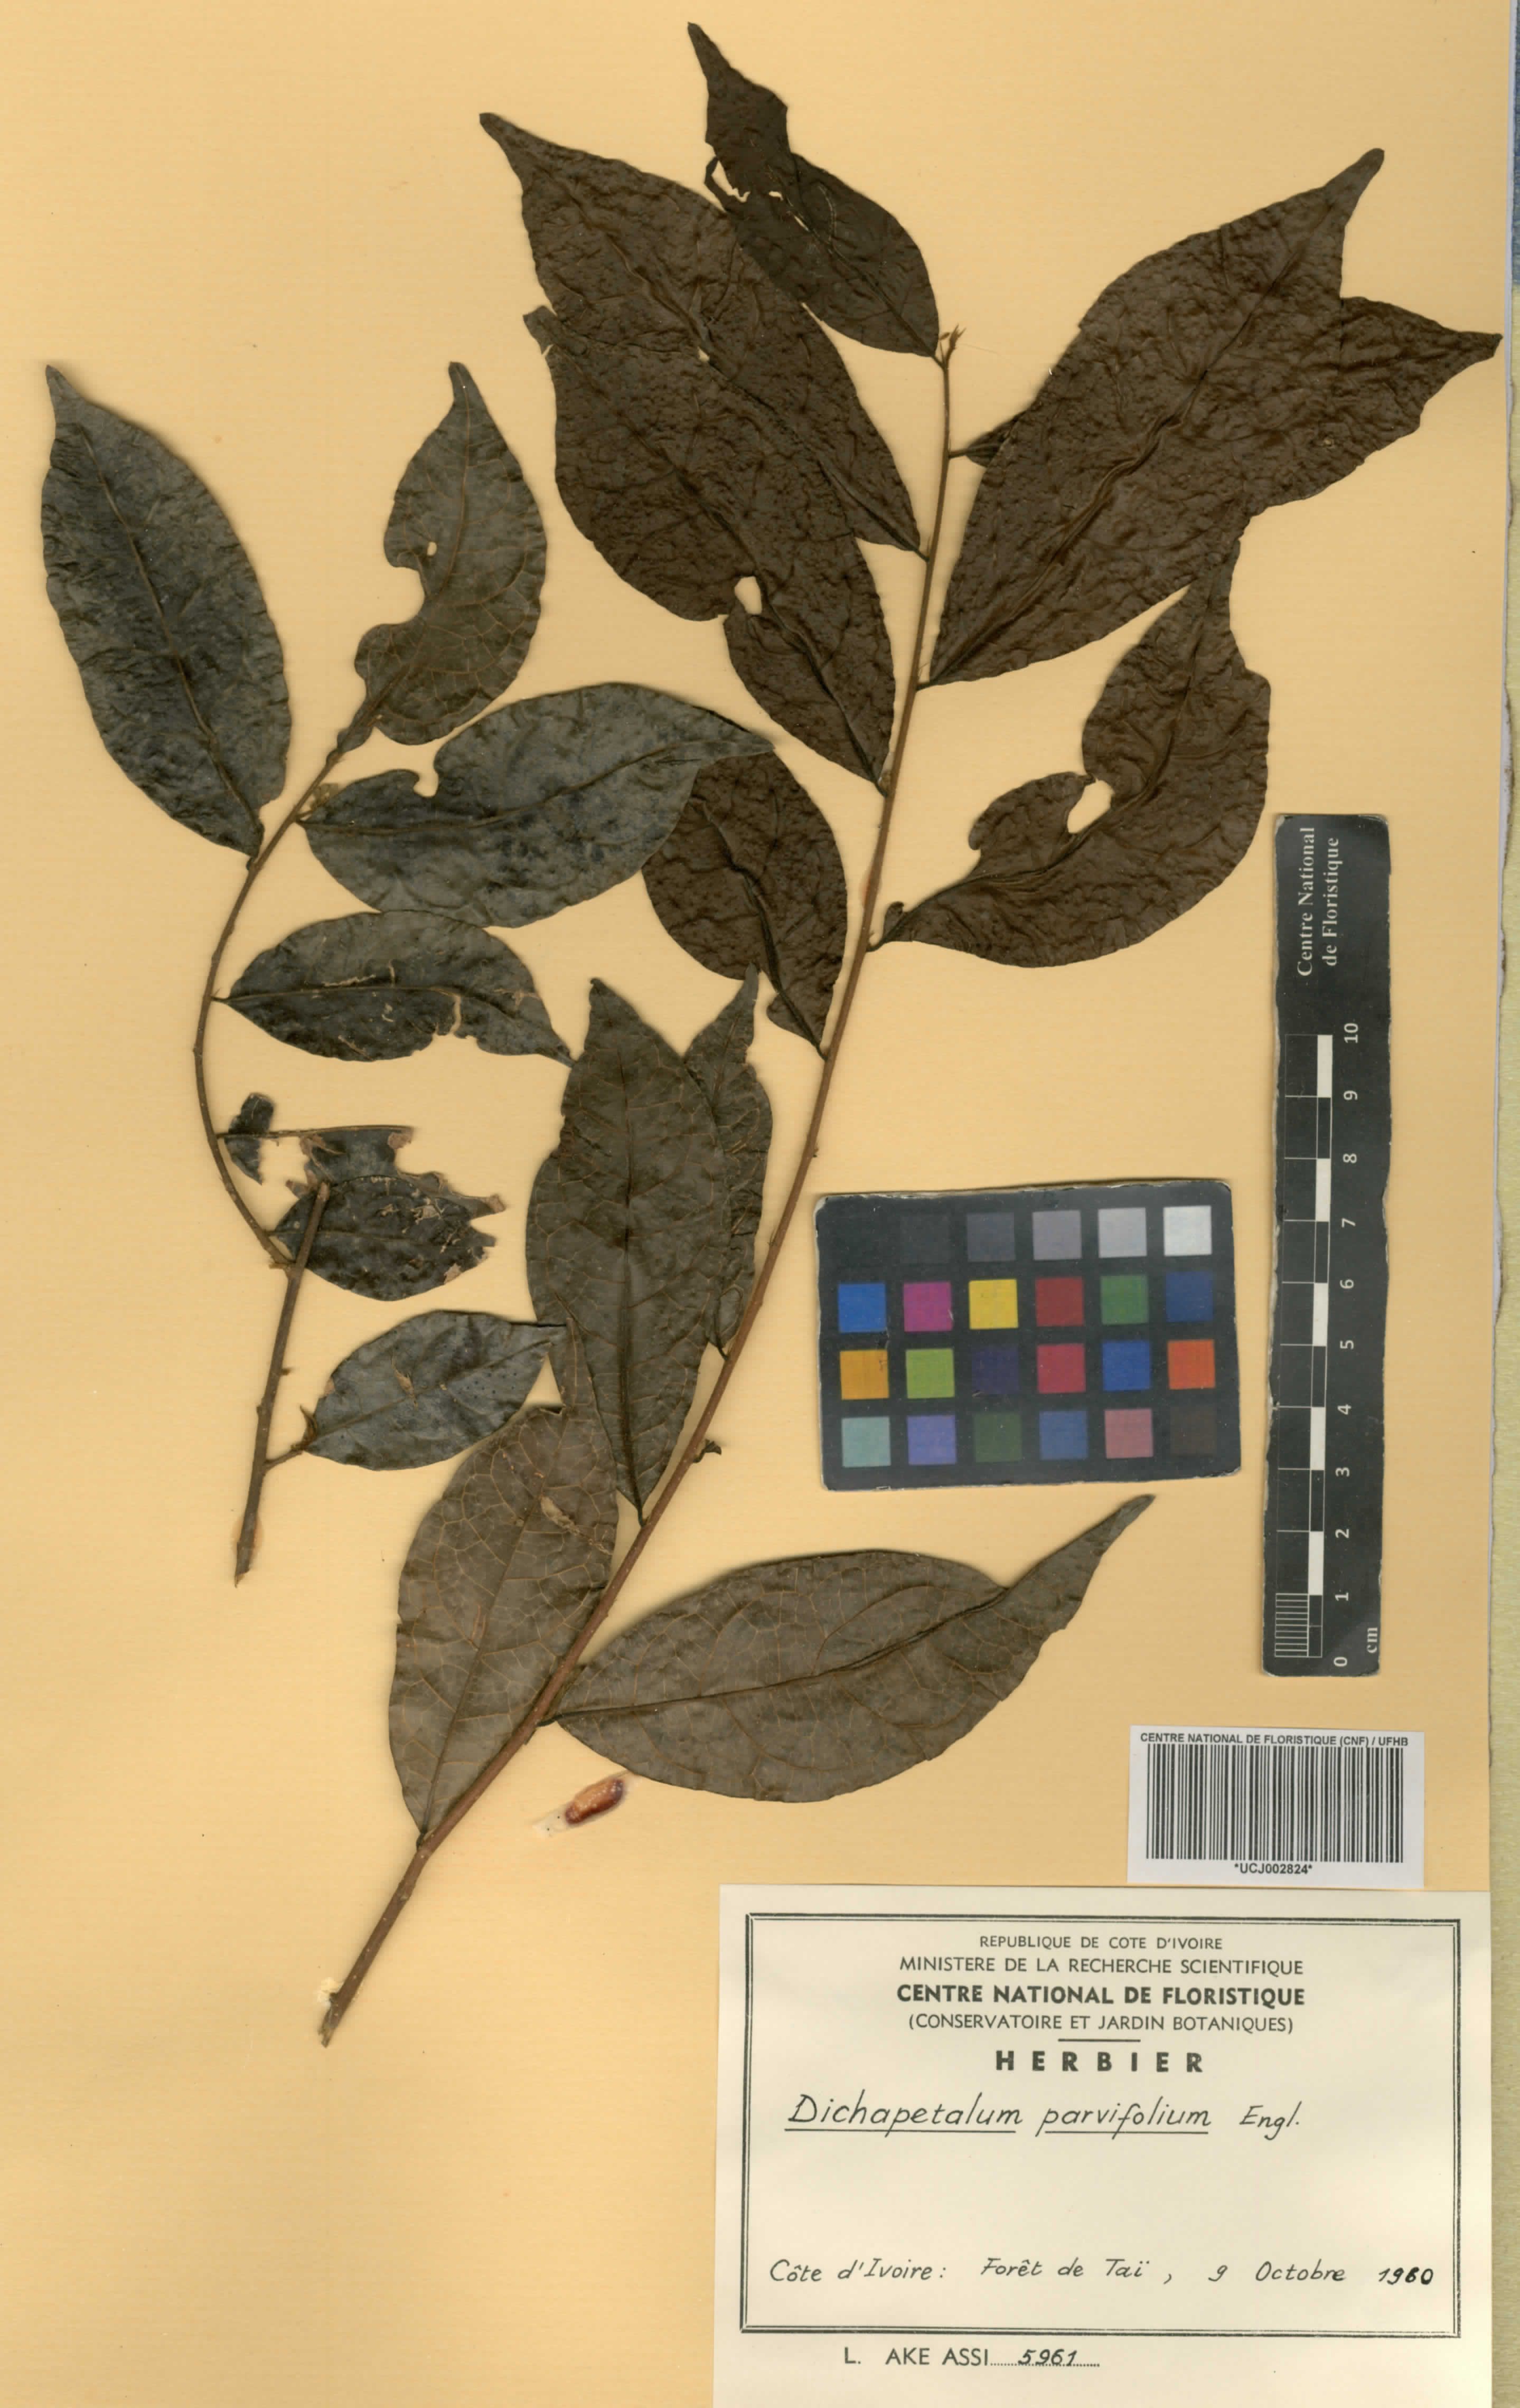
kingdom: Plantae
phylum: Tracheophyta
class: Magnoliopsida
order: Malpighiales
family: Dichapetalaceae
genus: Dichapetalum
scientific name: Dichapetalum parvifolium
